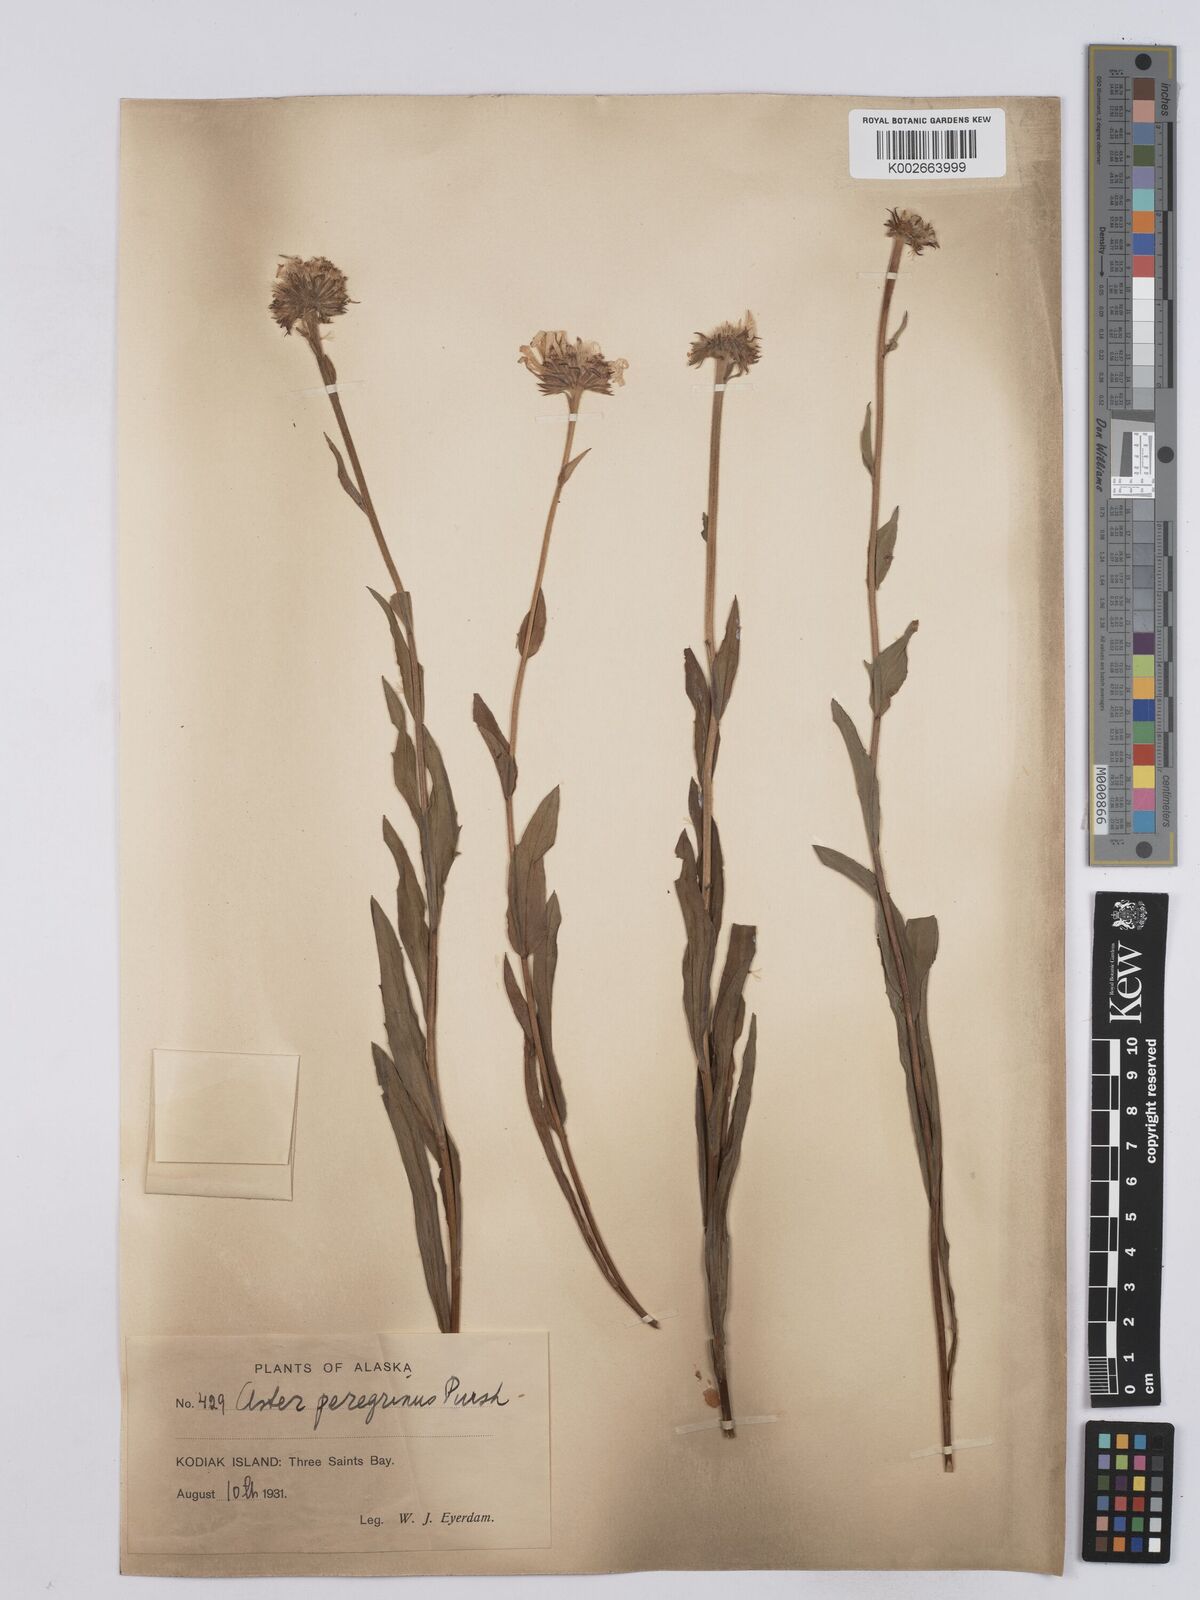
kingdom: Plantae
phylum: Tracheophyta
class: Magnoliopsida
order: Asterales
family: Asteraceae
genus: Erigeron
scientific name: Erigeron peregrinus
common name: Peregrine fleabane
